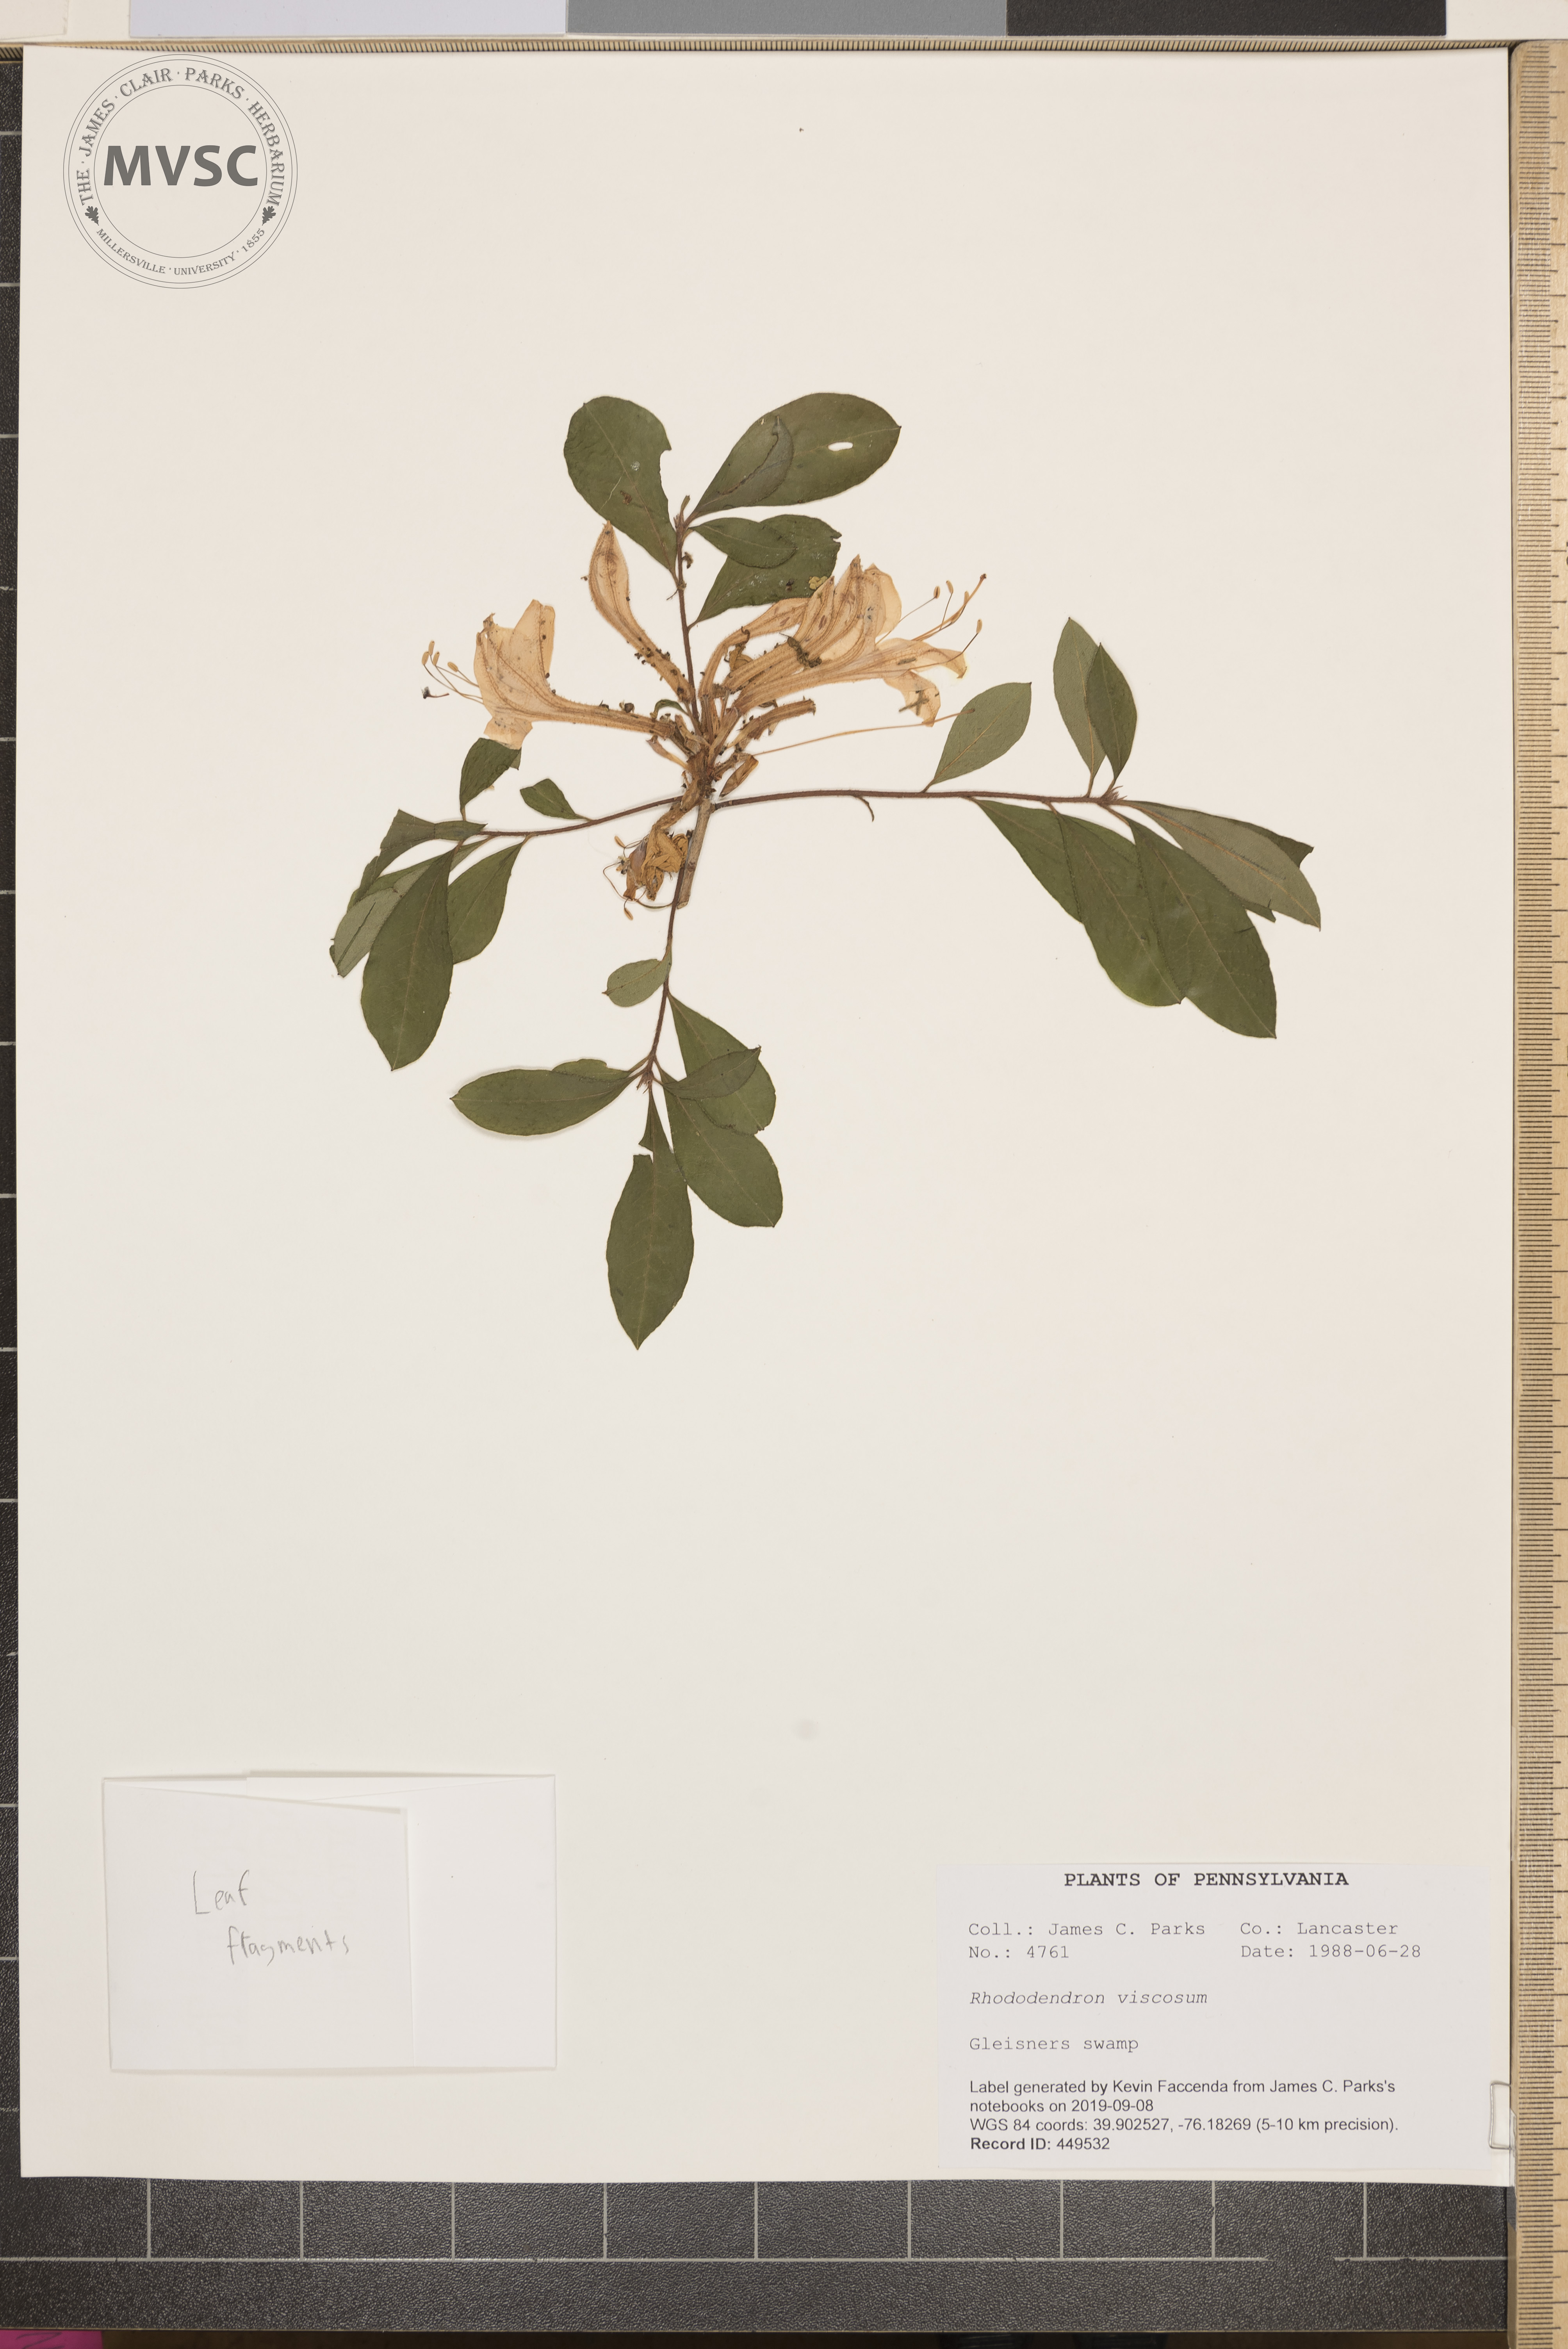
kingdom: Plantae
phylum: Tracheophyta
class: Magnoliopsida
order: Ericales
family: Ericaceae
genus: Rhododendron
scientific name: Rhododendron viscosum
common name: Clammy azalea
